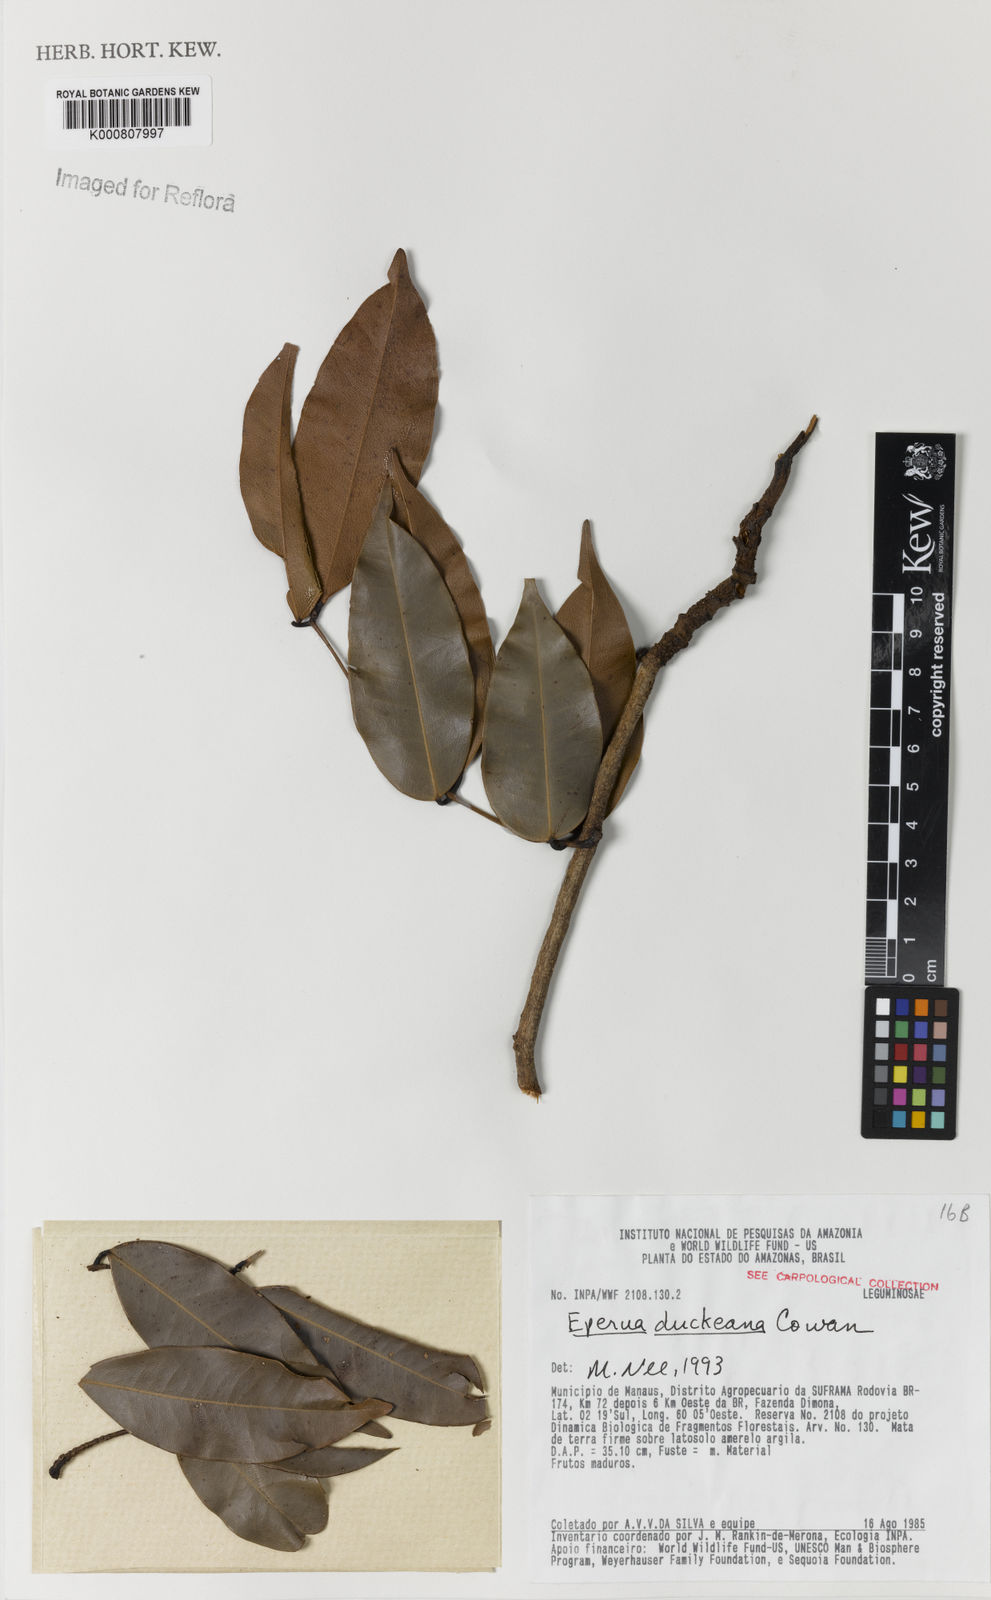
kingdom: Plantae
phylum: Tracheophyta
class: Magnoliopsida
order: Fabales
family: Fabaceae
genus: Eperua
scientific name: Eperua duckeana
